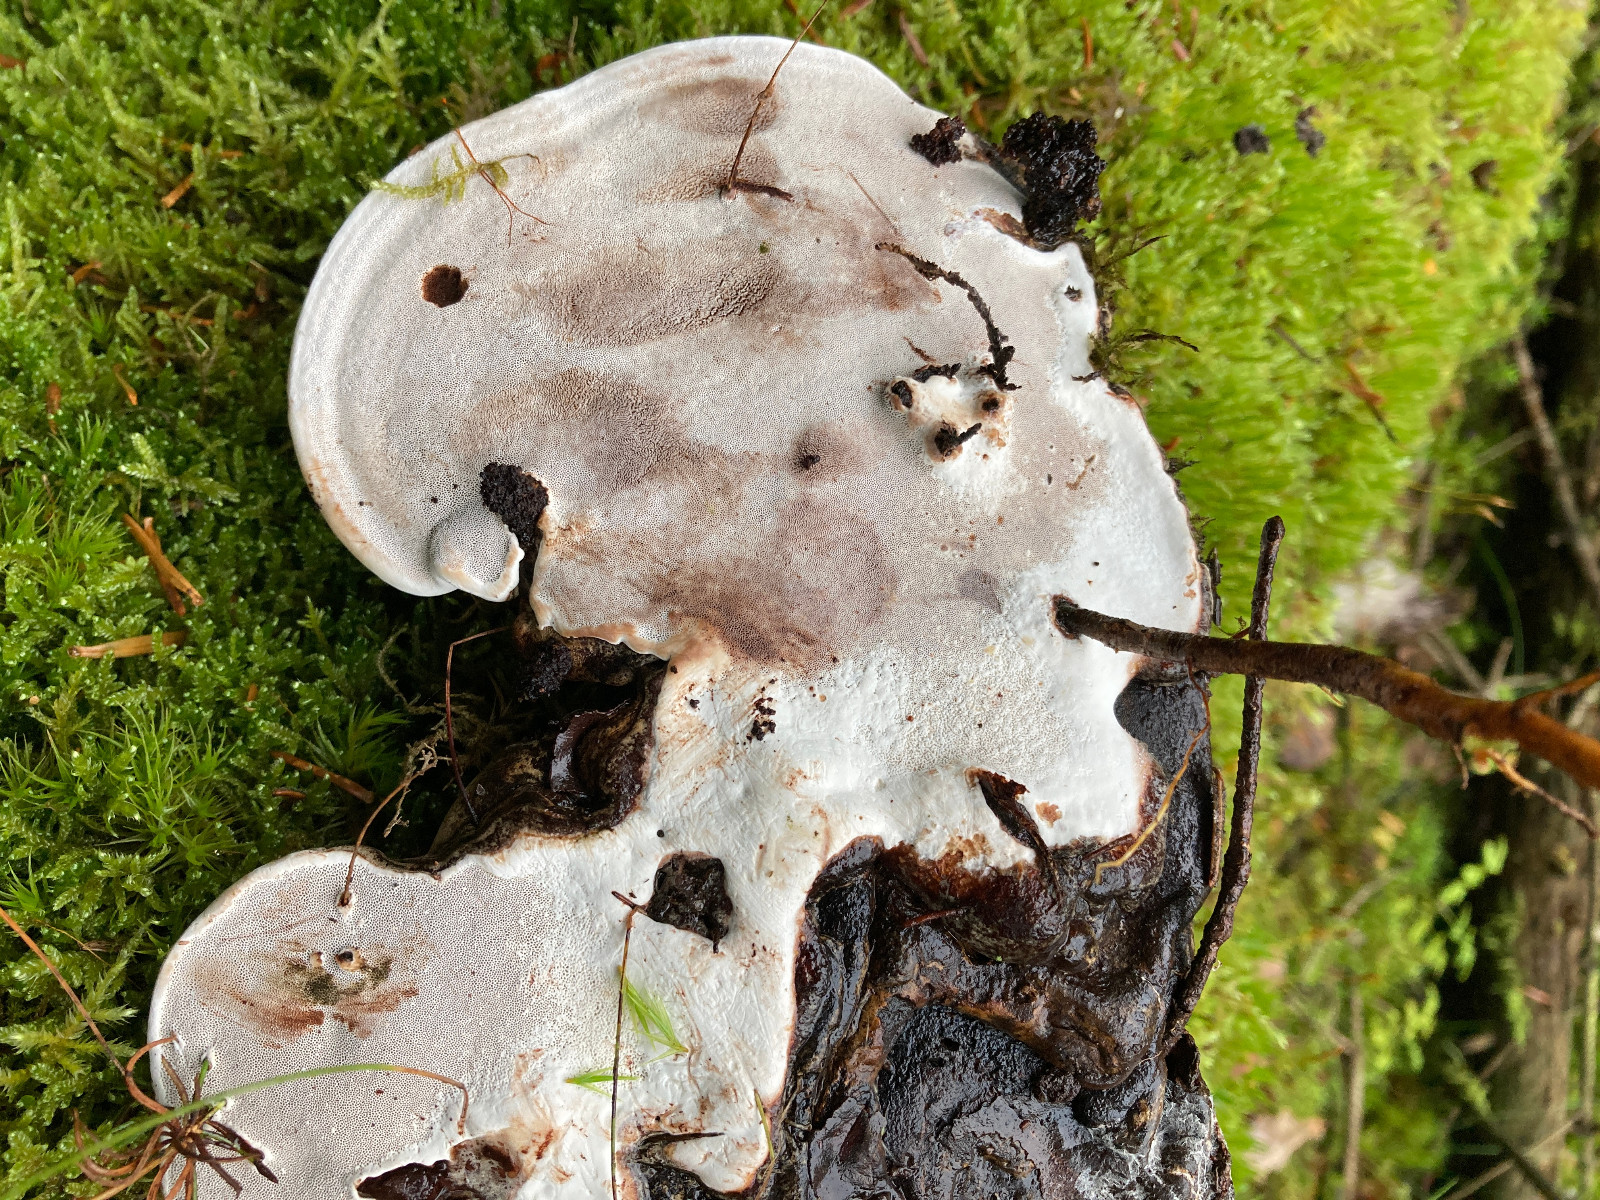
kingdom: Fungi
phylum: Basidiomycota
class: Agaricomycetes
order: Polyporales
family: Polyporaceae
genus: Ganoderma
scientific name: Ganoderma applanatum
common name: flad lakporesvamp
